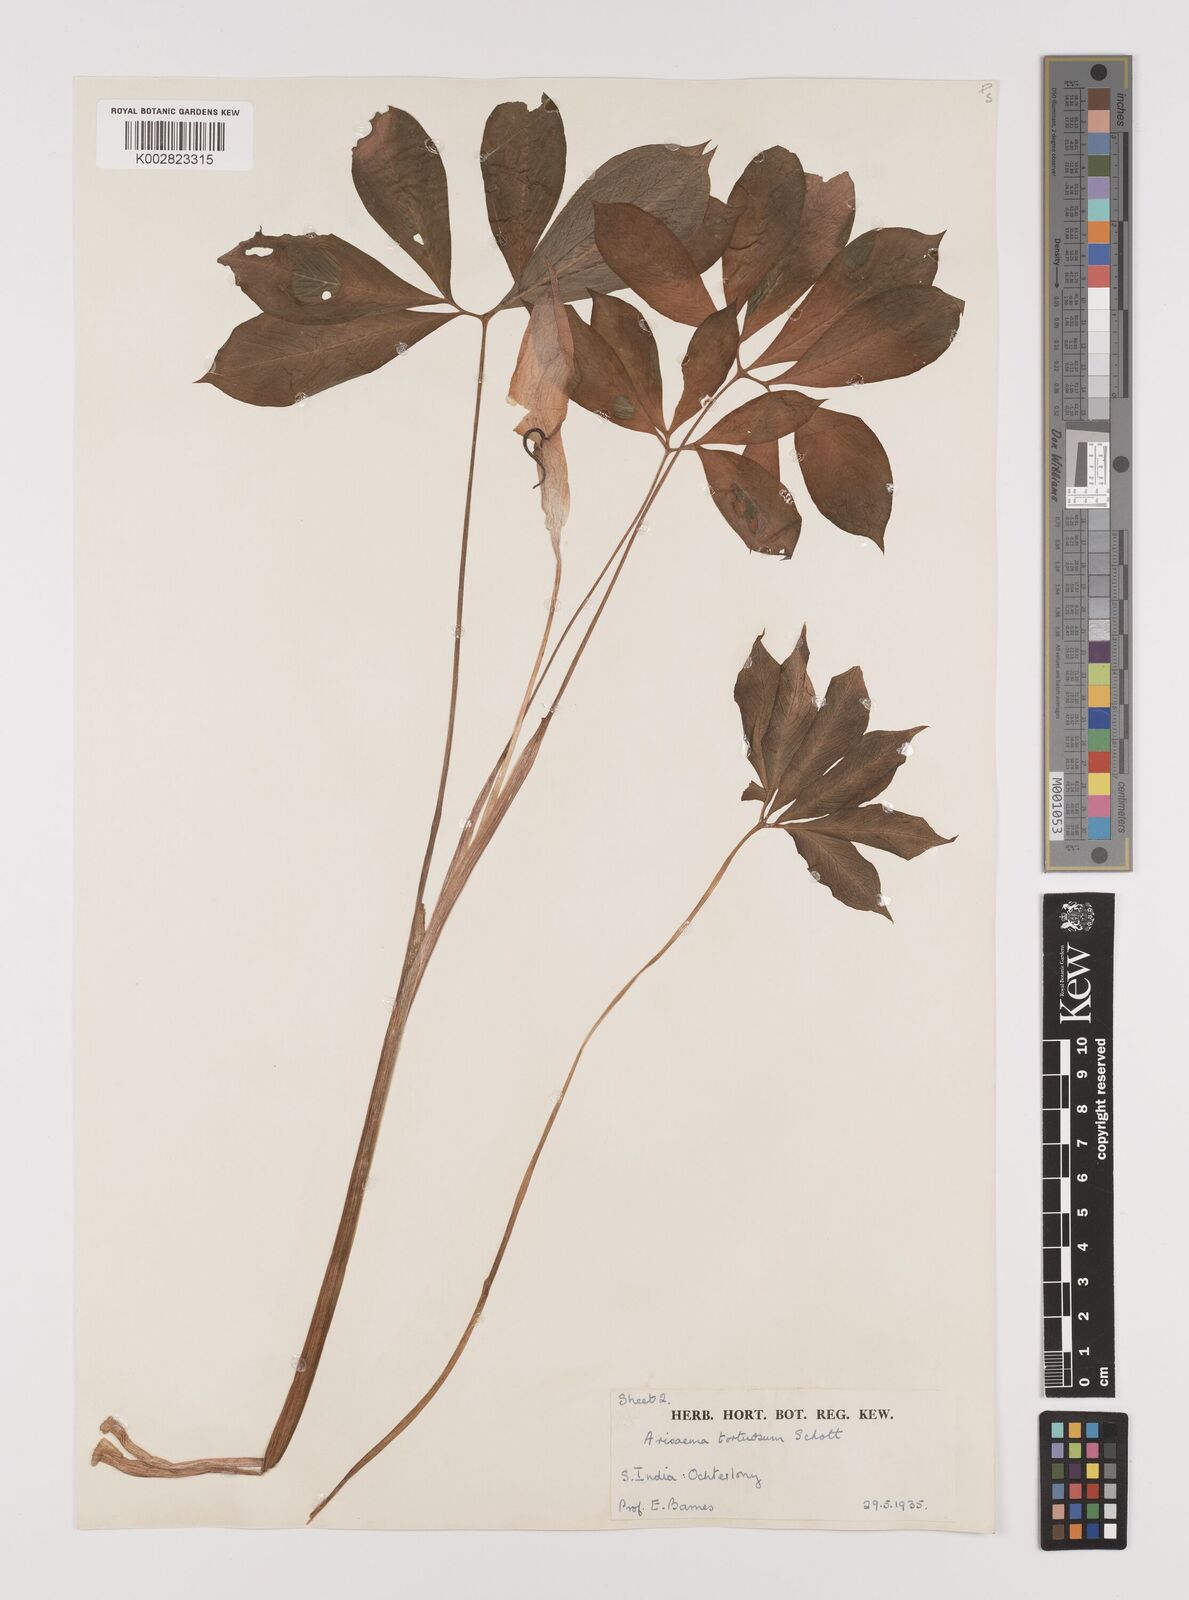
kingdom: Plantae
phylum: Tracheophyta
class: Liliopsida
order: Alismatales
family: Araceae
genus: Arisaema
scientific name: Arisaema tortuosum
